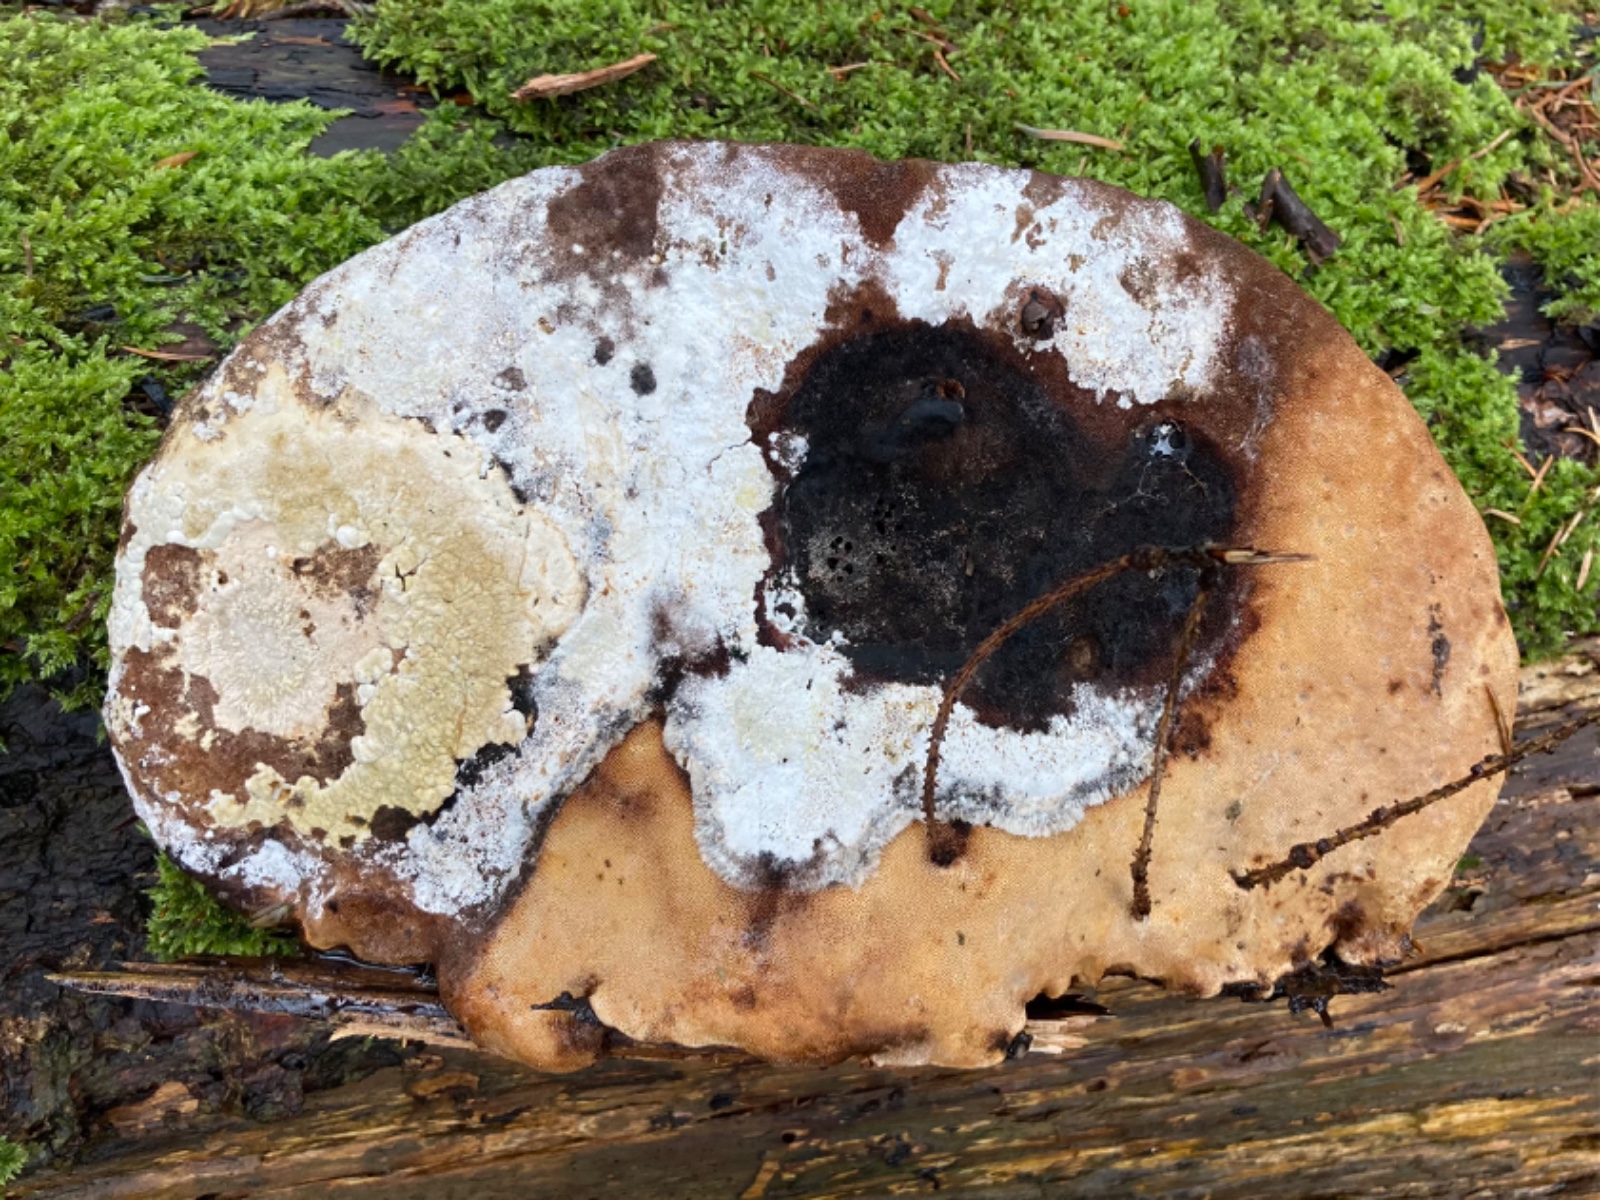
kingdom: Fungi
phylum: Ascomycota
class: Sordariomycetes
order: Hypocreales
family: Hypocreaceae
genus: Trichoderma
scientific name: Trichoderma protopulvinatum
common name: hovpore-kødkerne
